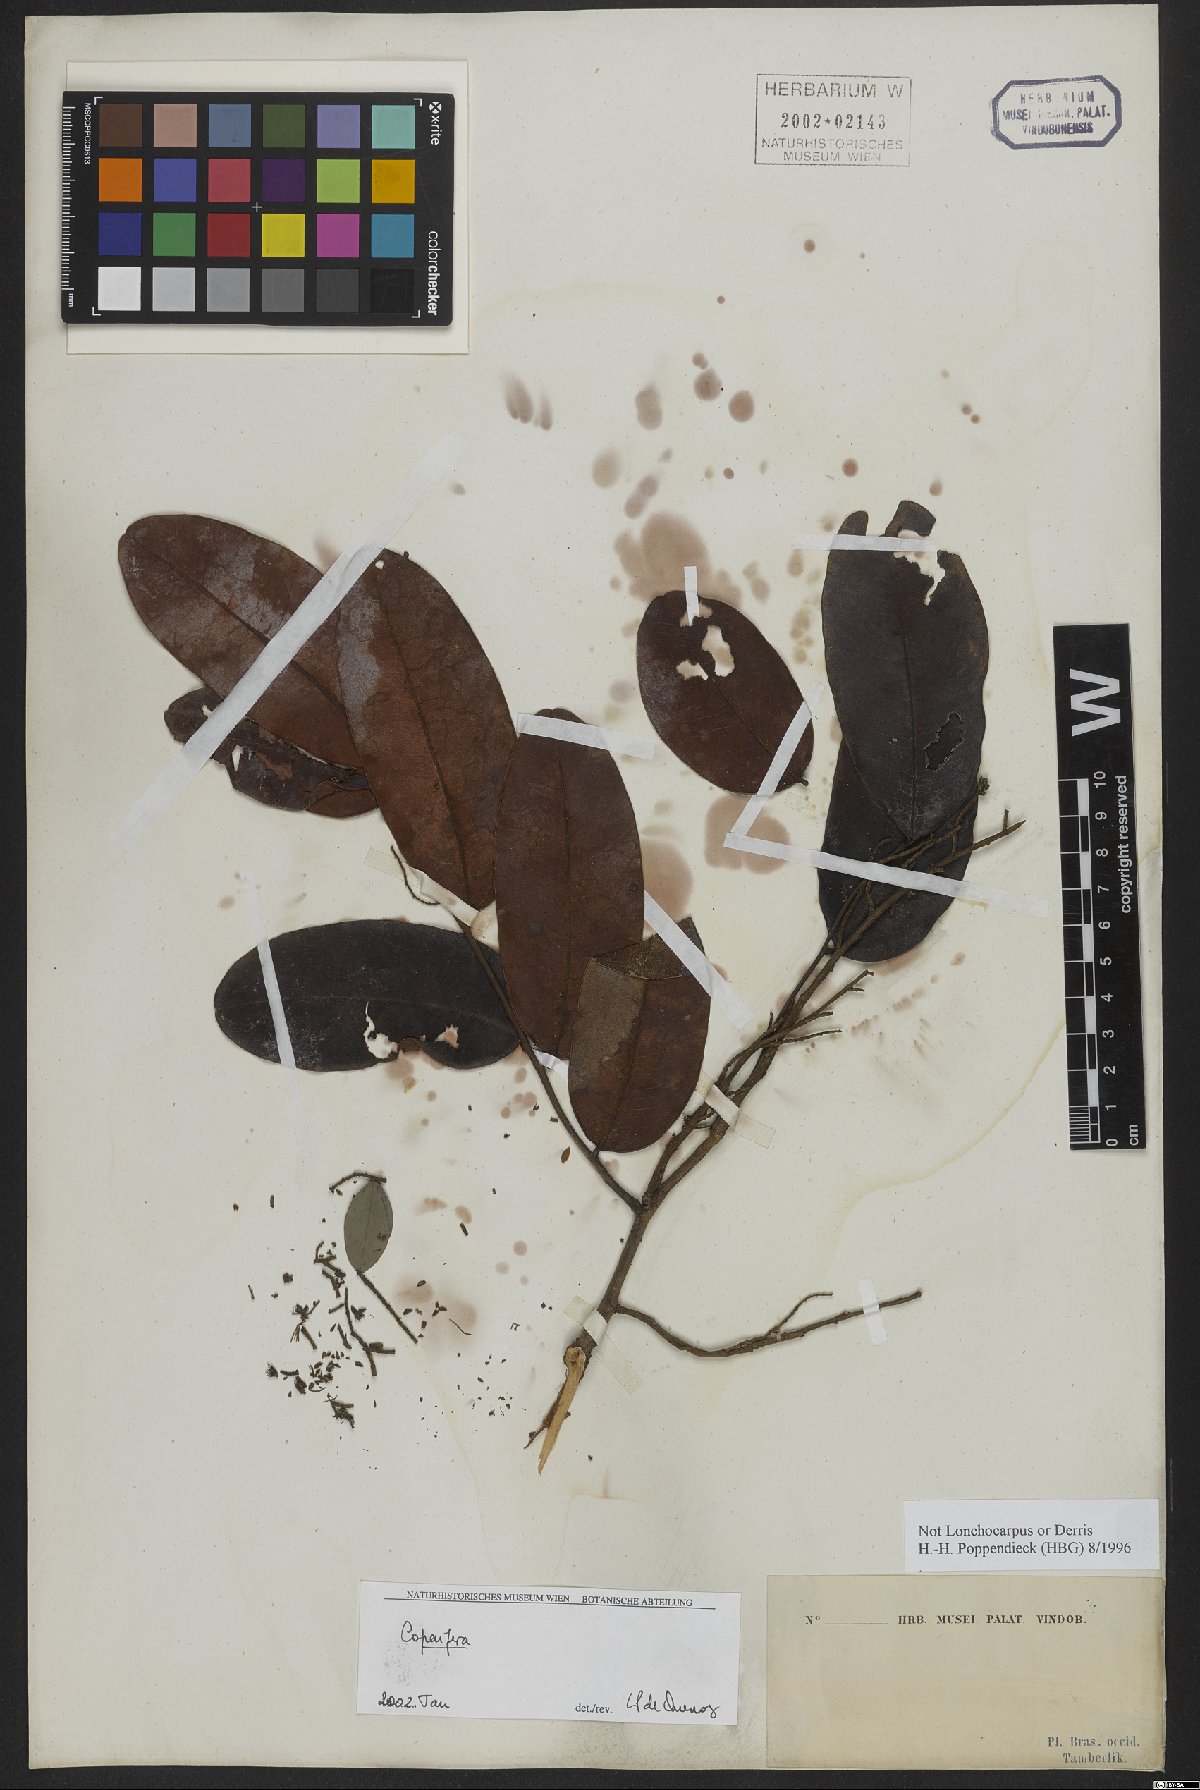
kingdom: Plantae
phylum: Tracheophyta
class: Magnoliopsida
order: Fabales
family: Fabaceae
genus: Copaifera
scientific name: Copaifera
